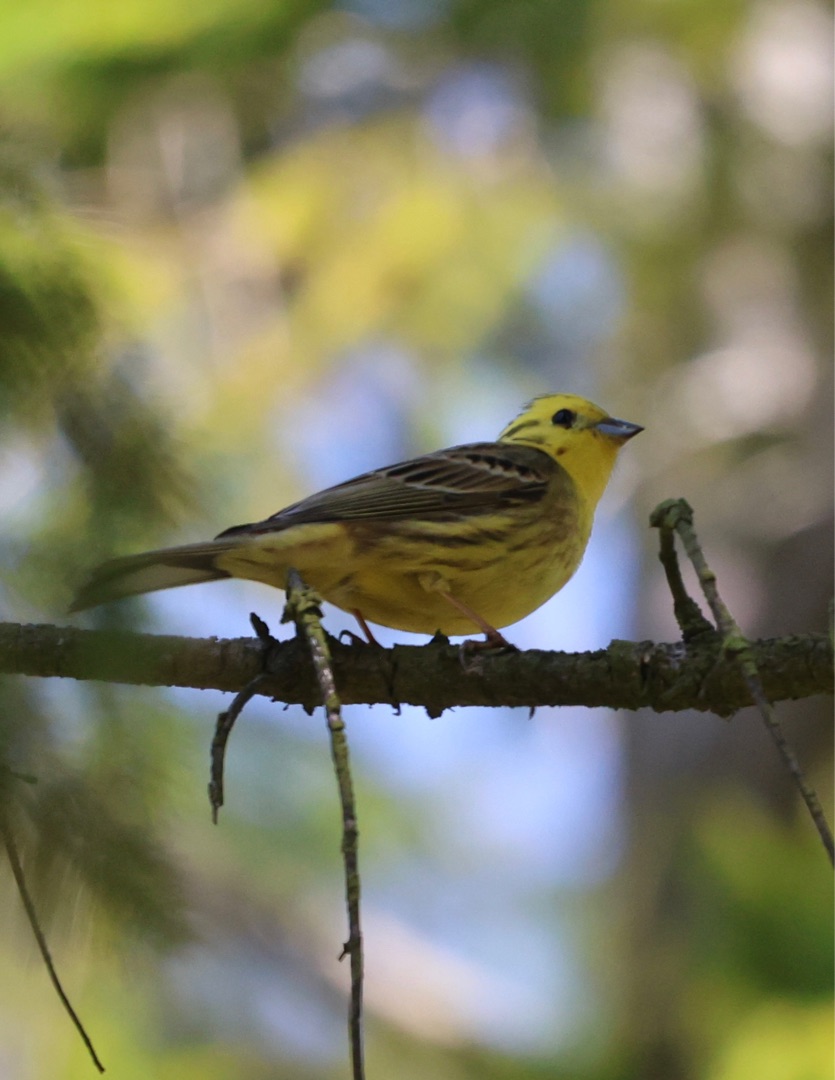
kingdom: Animalia
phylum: Chordata
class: Aves
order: Passeriformes
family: Emberizidae
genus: Emberiza
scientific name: Emberiza citrinella
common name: Gulspurv
